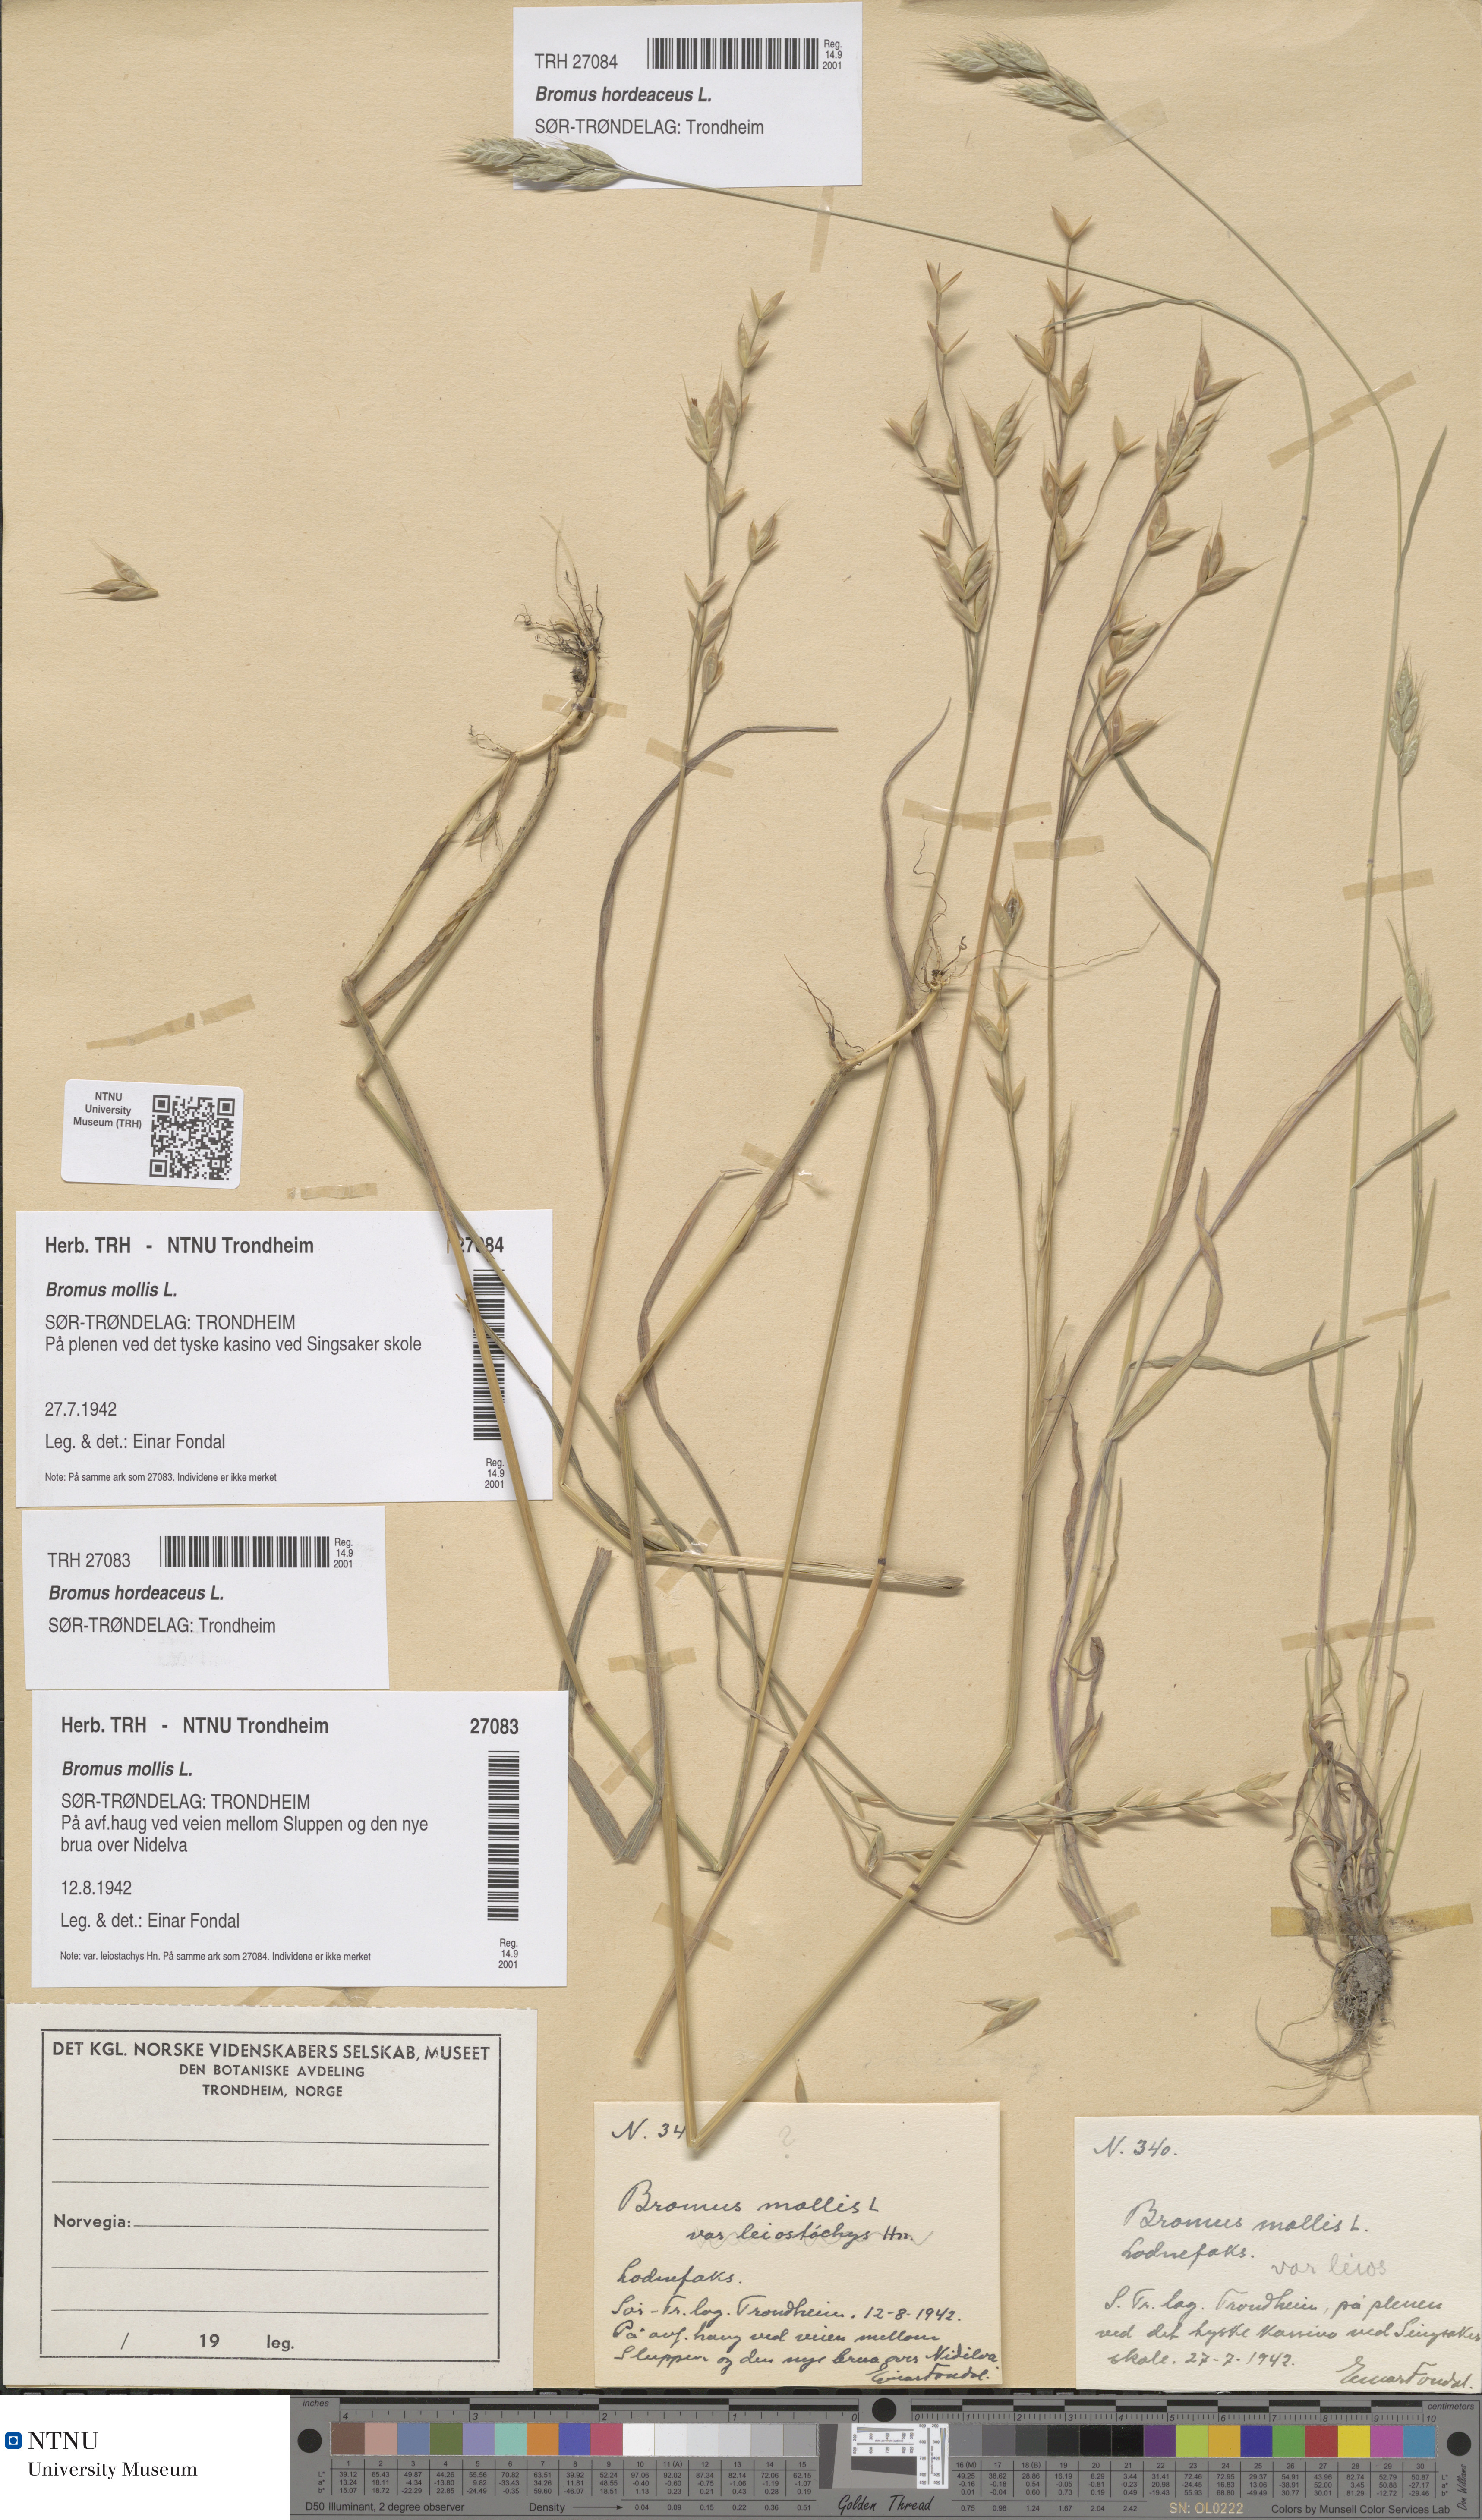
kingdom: Plantae
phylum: Tracheophyta
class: Liliopsida
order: Poales
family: Poaceae
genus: Bromus
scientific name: Bromus hordeaceus
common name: Soft brome
